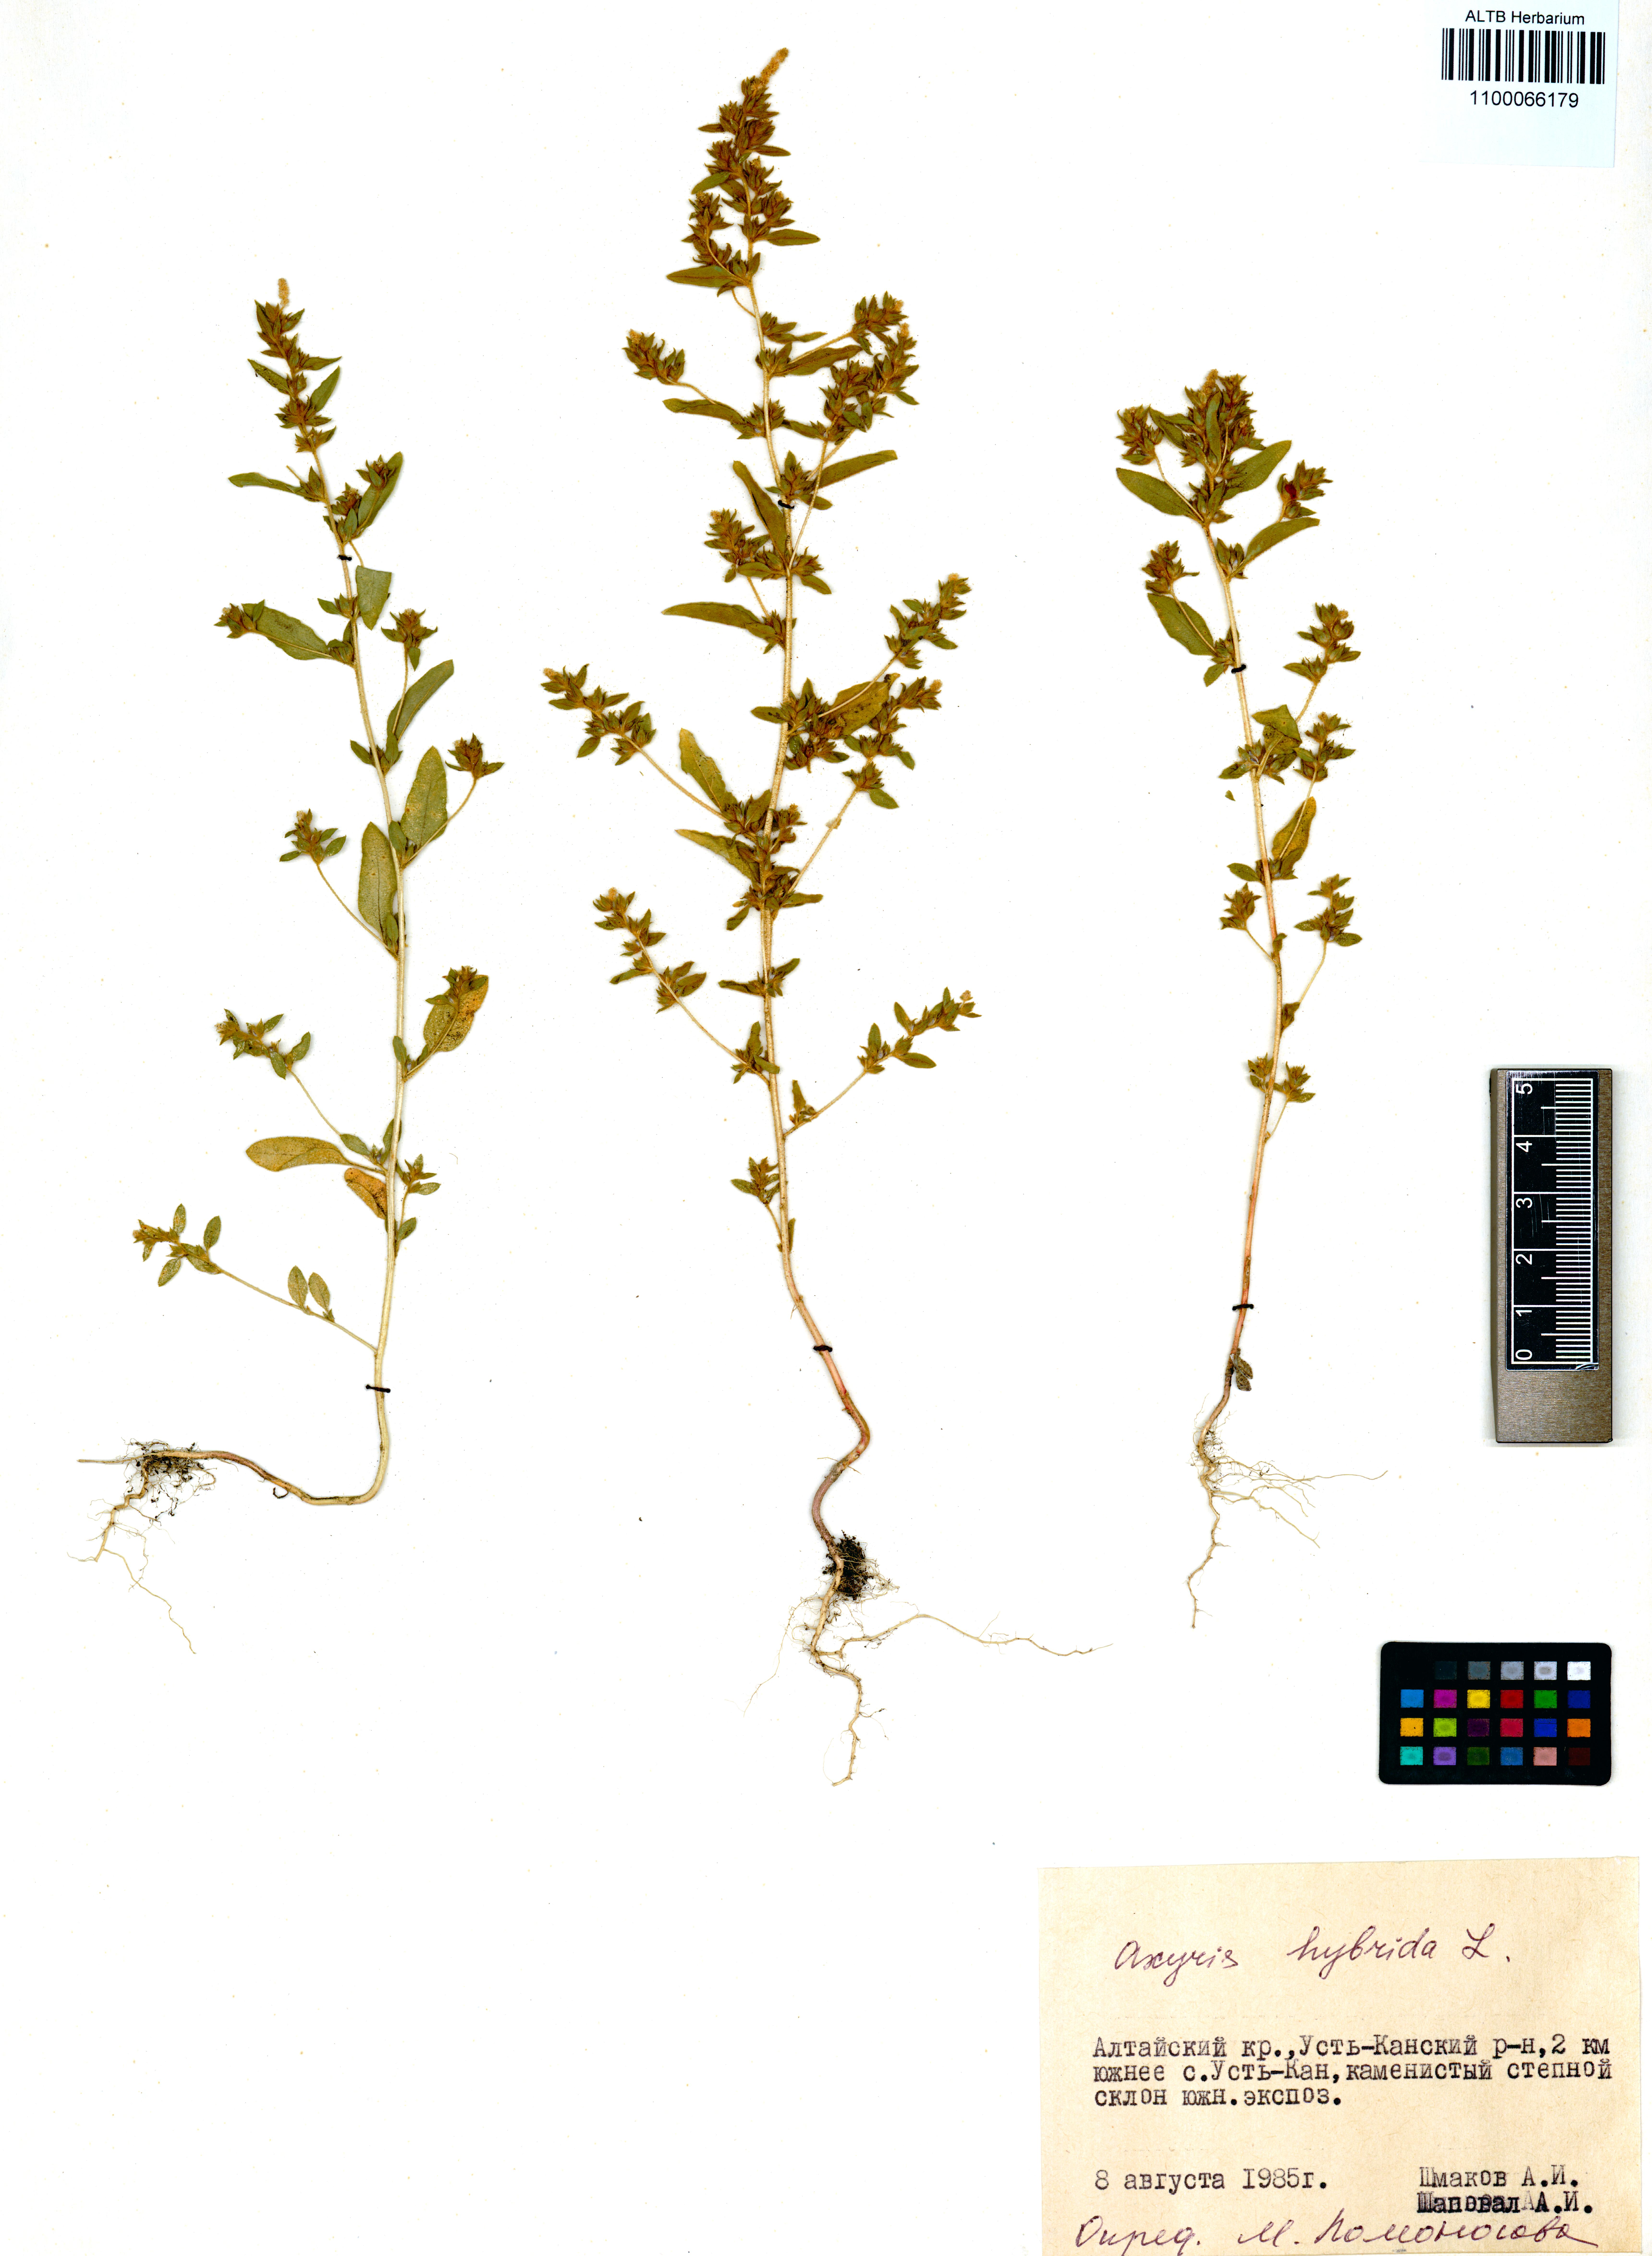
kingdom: Plantae
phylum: Tracheophyta
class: Magnoliopsida
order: Caryophyllales
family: Amaranthaceae
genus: Axyris
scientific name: Axyris hybrida
